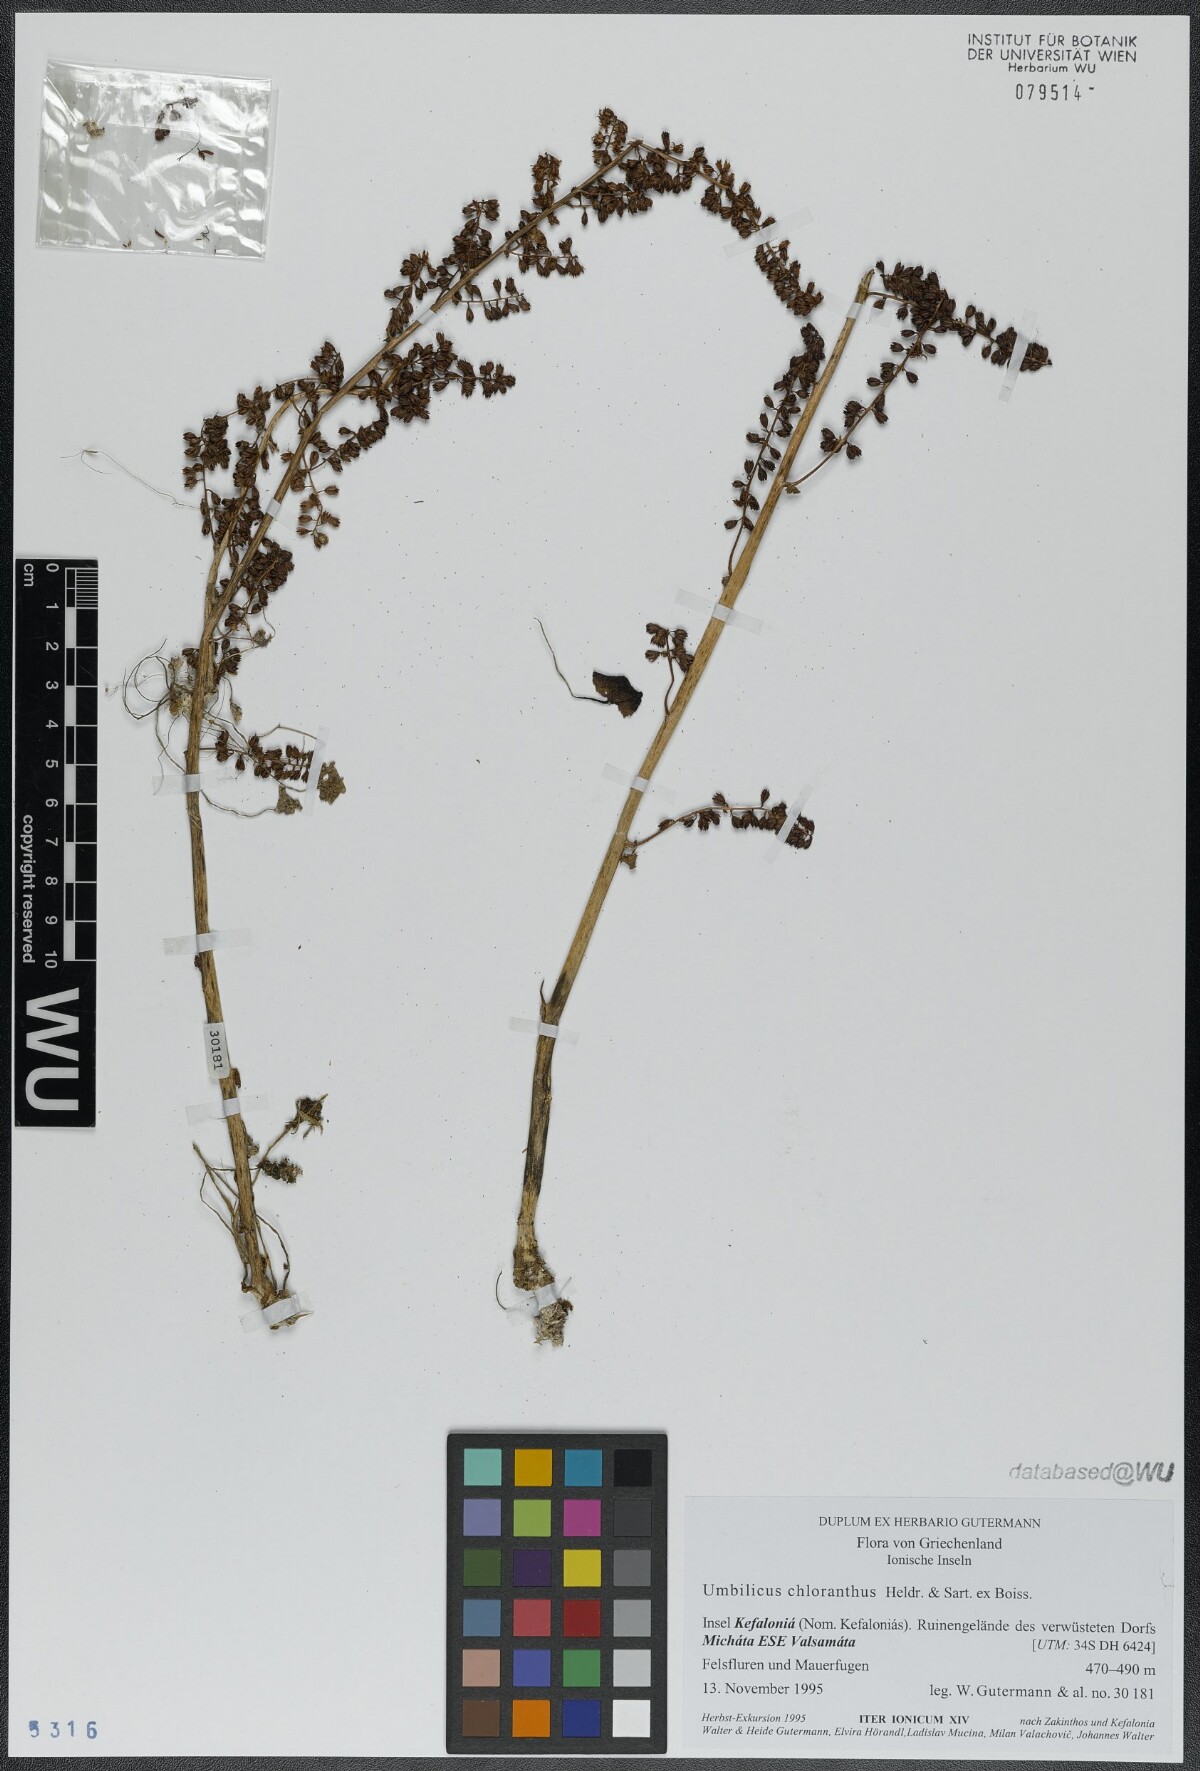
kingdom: Plantae
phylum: Tracheophyta
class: Magnoliopsida
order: Saxifragales
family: Crassulaceae
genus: Umbilicus
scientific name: Umbilicus chloranthus
